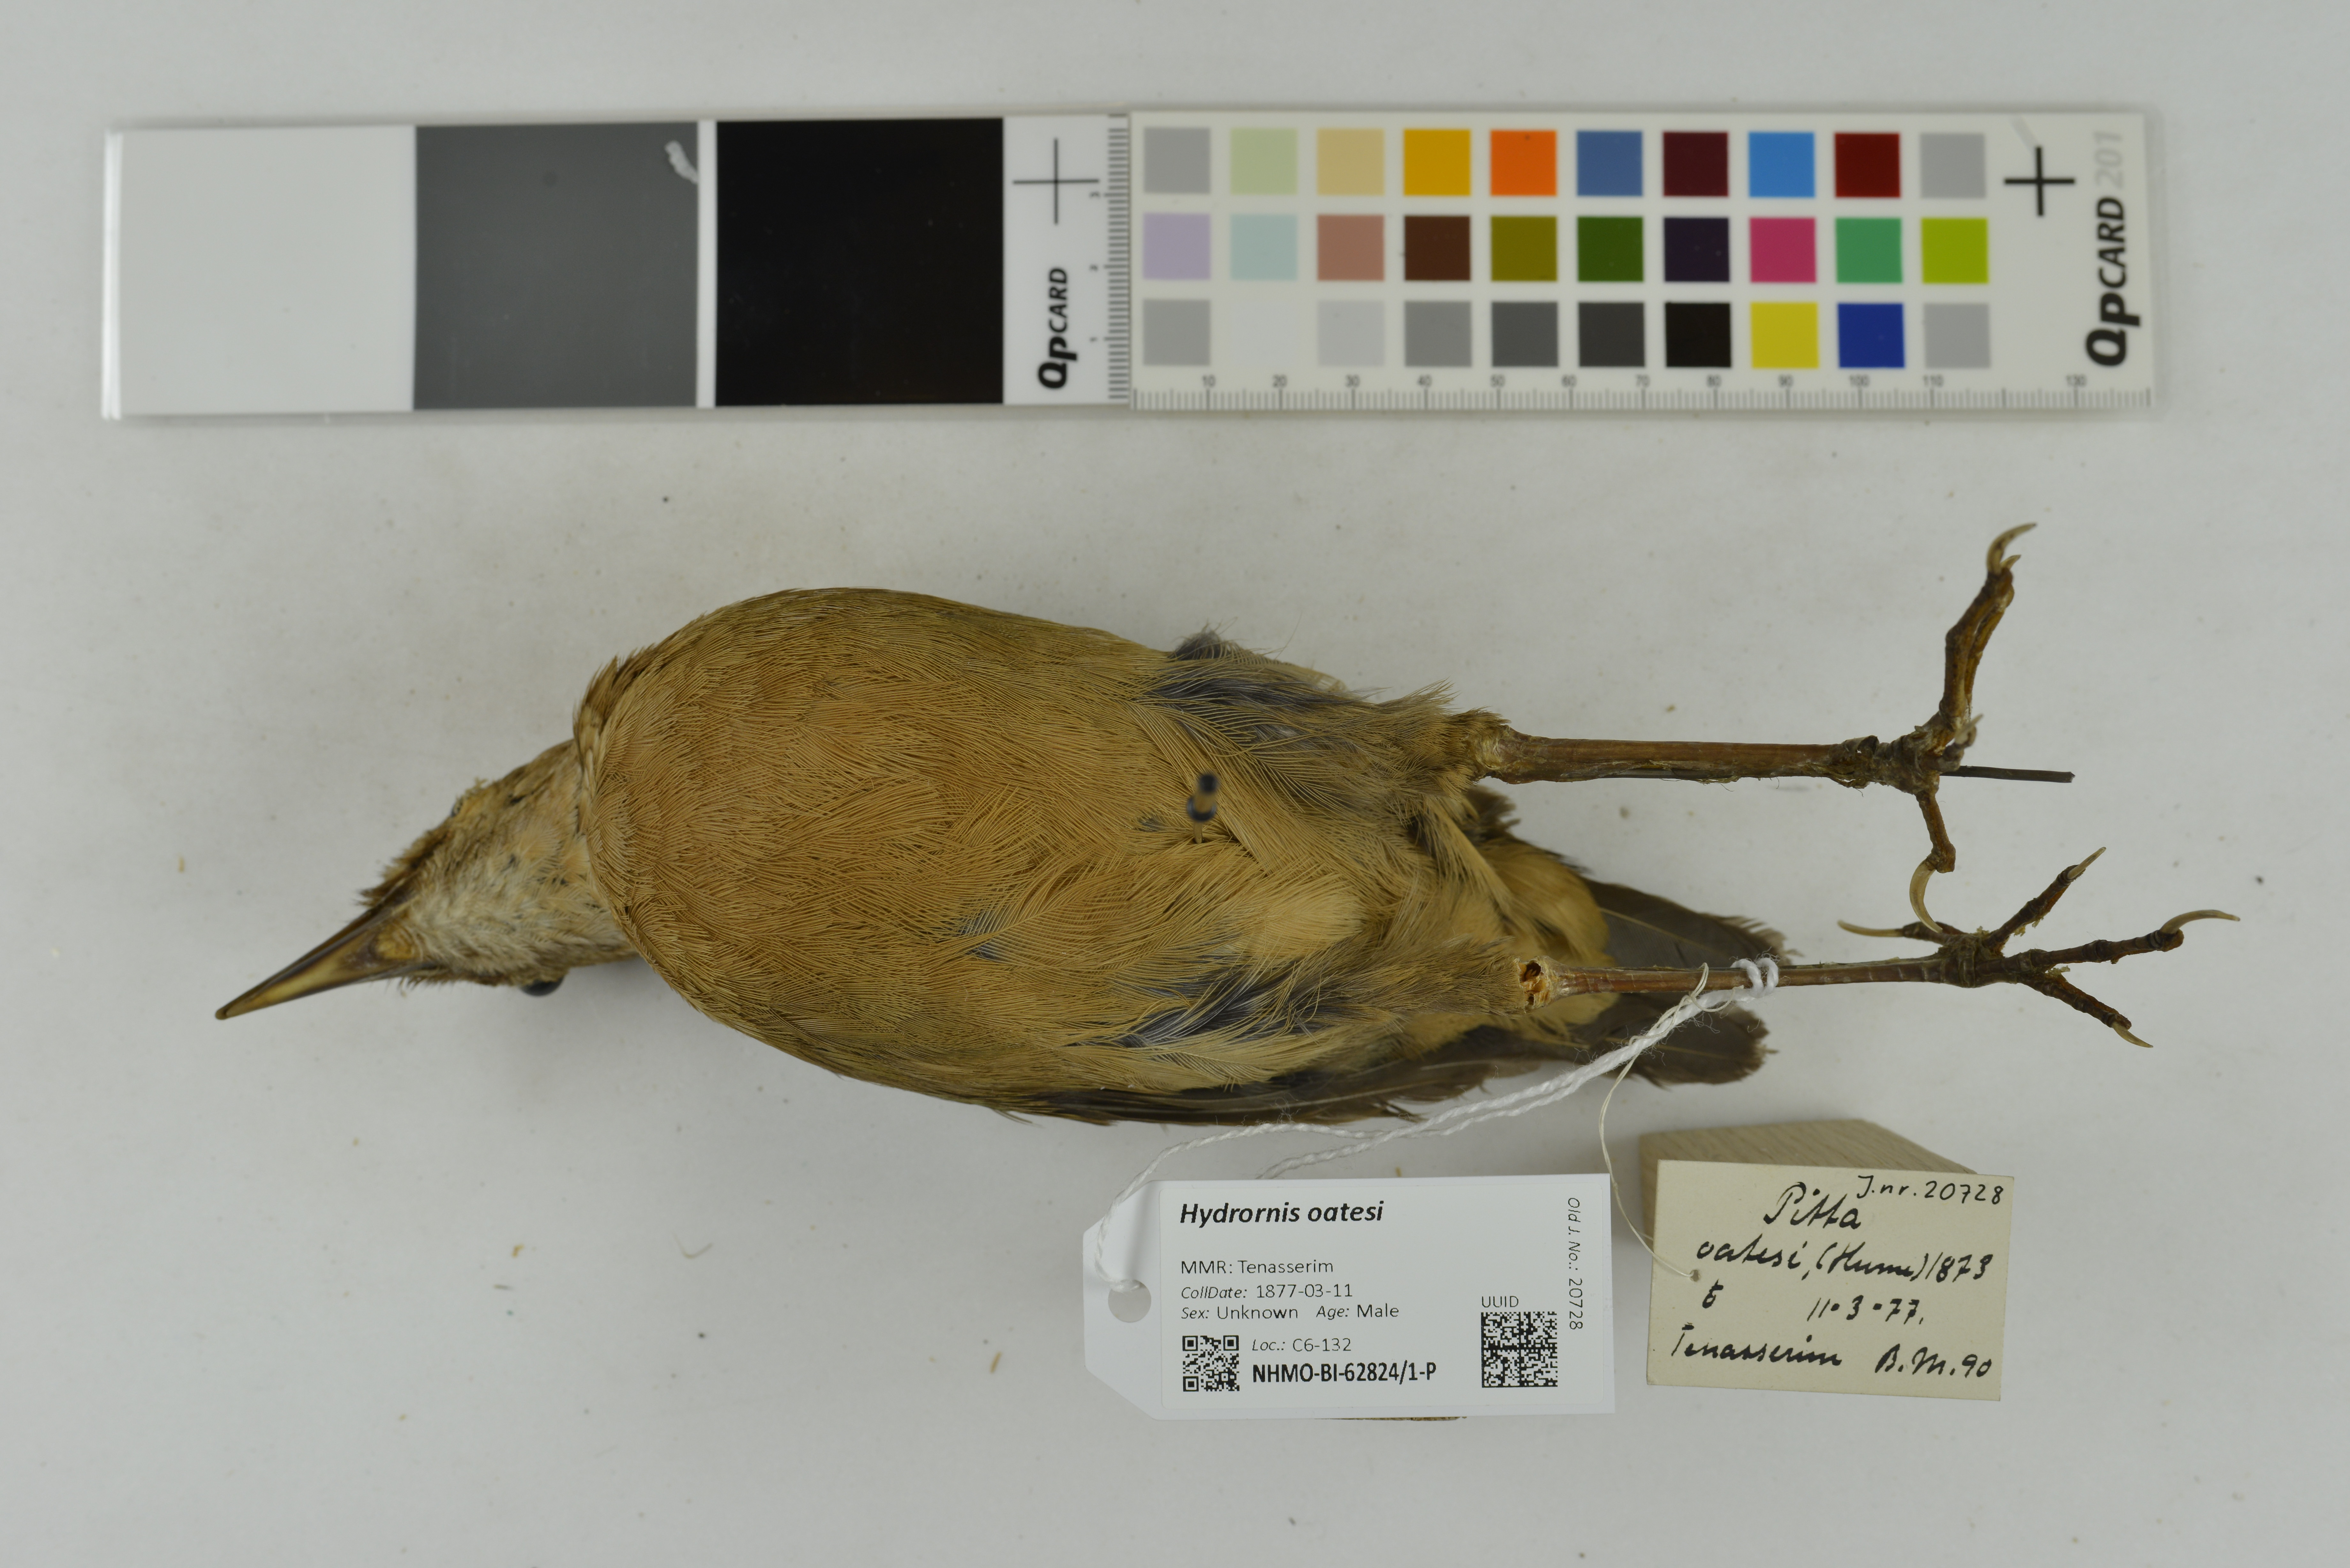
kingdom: Animalia
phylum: Chordata
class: Aves
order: Passeriformes
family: Pittidae
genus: Pitta
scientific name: Pitta oatesi
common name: Rusty-naped pitta
